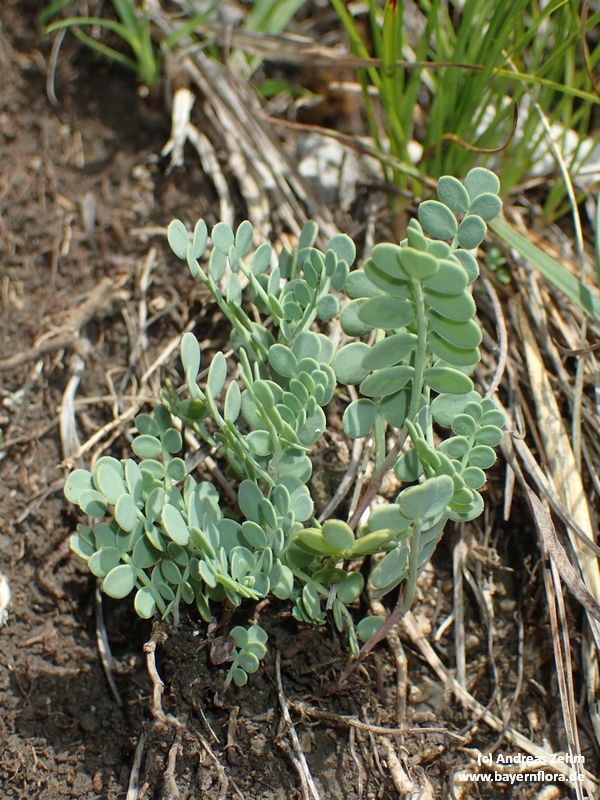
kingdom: Plantae
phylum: Tracheophyta
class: Magnoliopsida
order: Fabales
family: Fabaceae
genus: Coronilla
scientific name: Coronilla vaginalis
